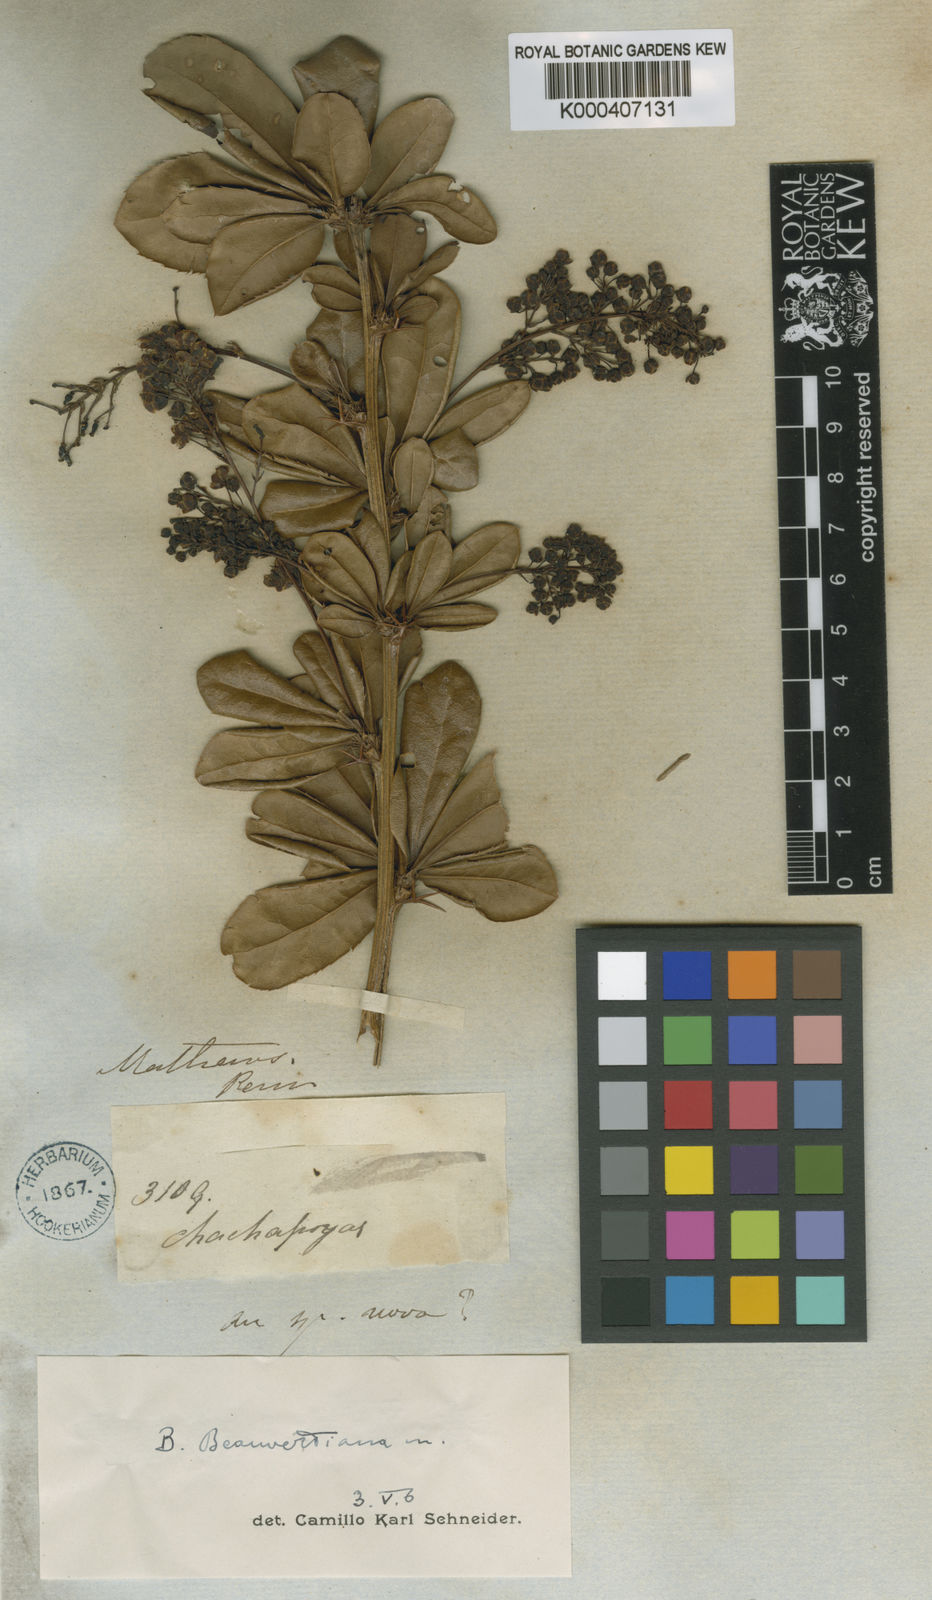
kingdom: Plantae
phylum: Tracheophyta
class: Magnoliopsida
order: Ranunculales
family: Berberidaceae
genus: Berberis
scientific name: Berberis beauverdiana
